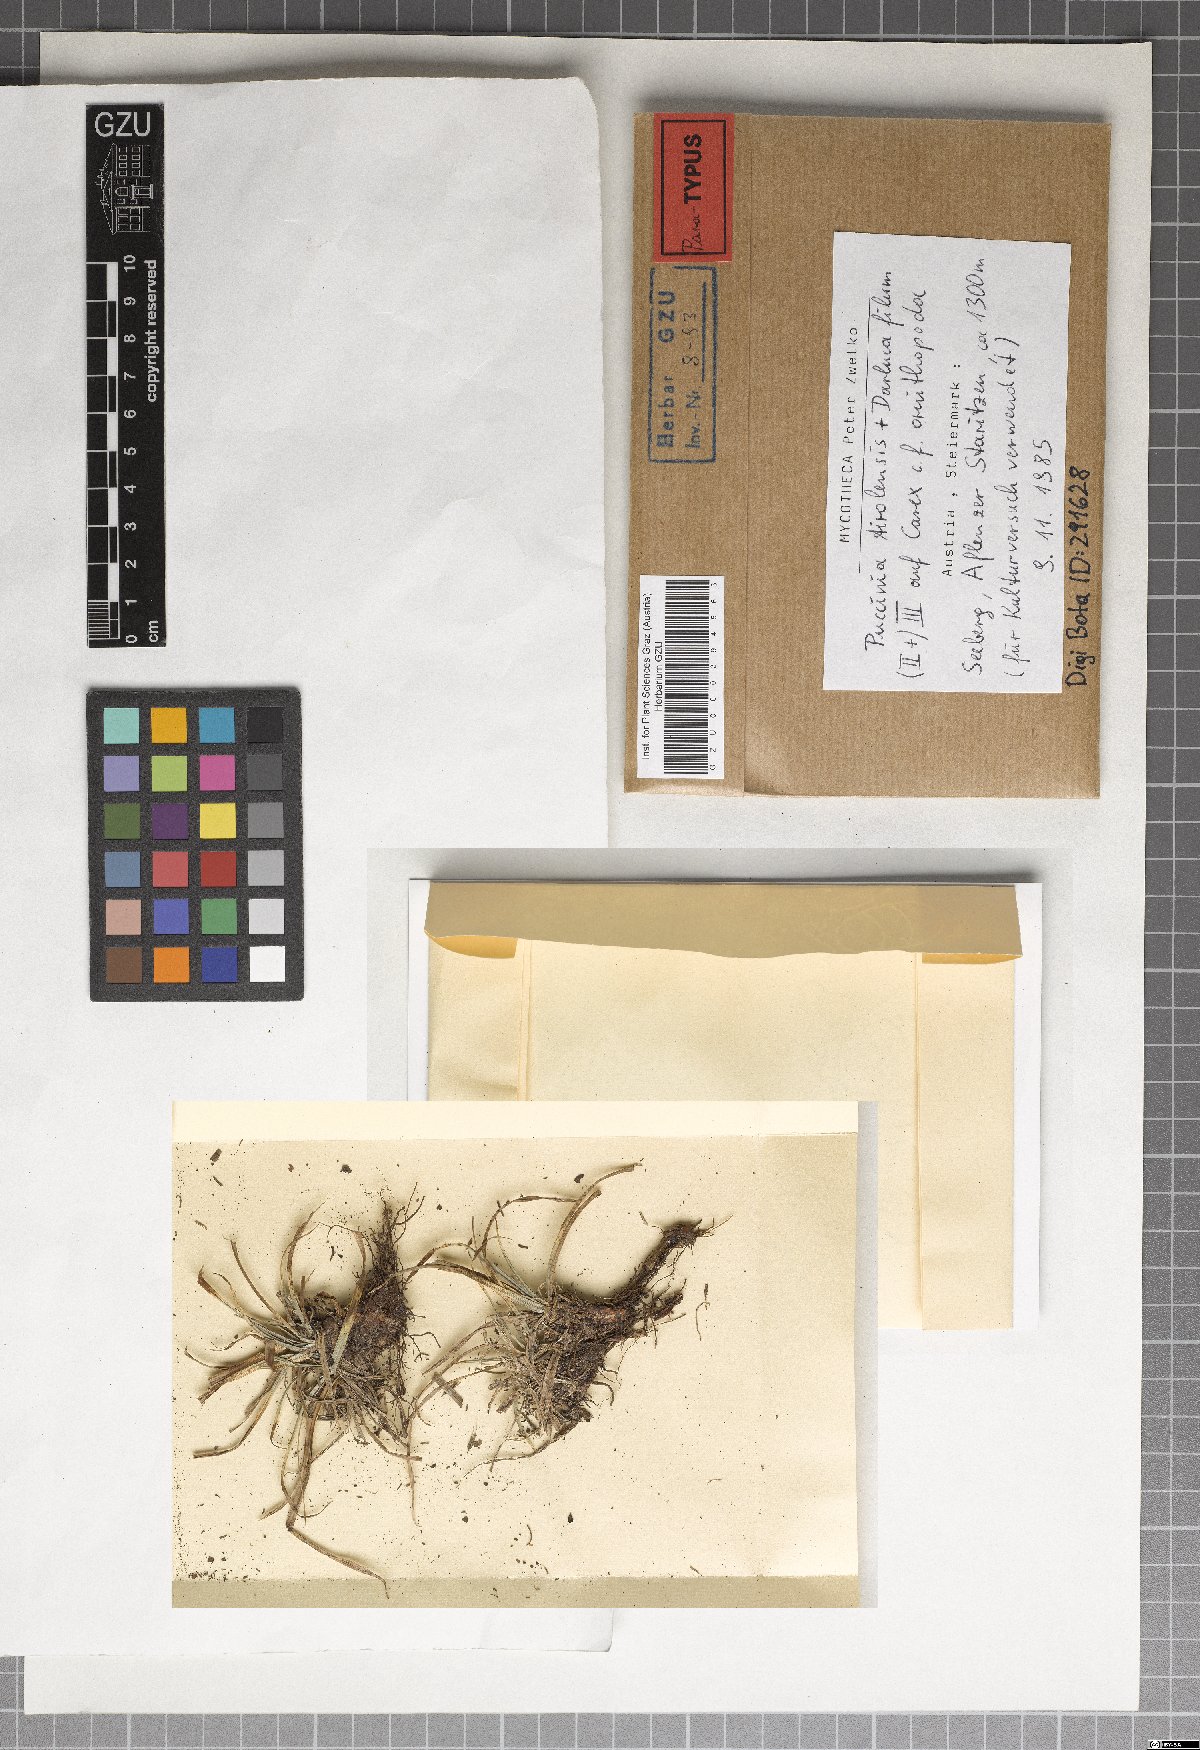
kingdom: Fungi
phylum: Basidiomycota
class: Pucciniomycetes
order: Pucciniales
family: Pucciniaceae
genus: Puccinia
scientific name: Puccinia tirolensis
